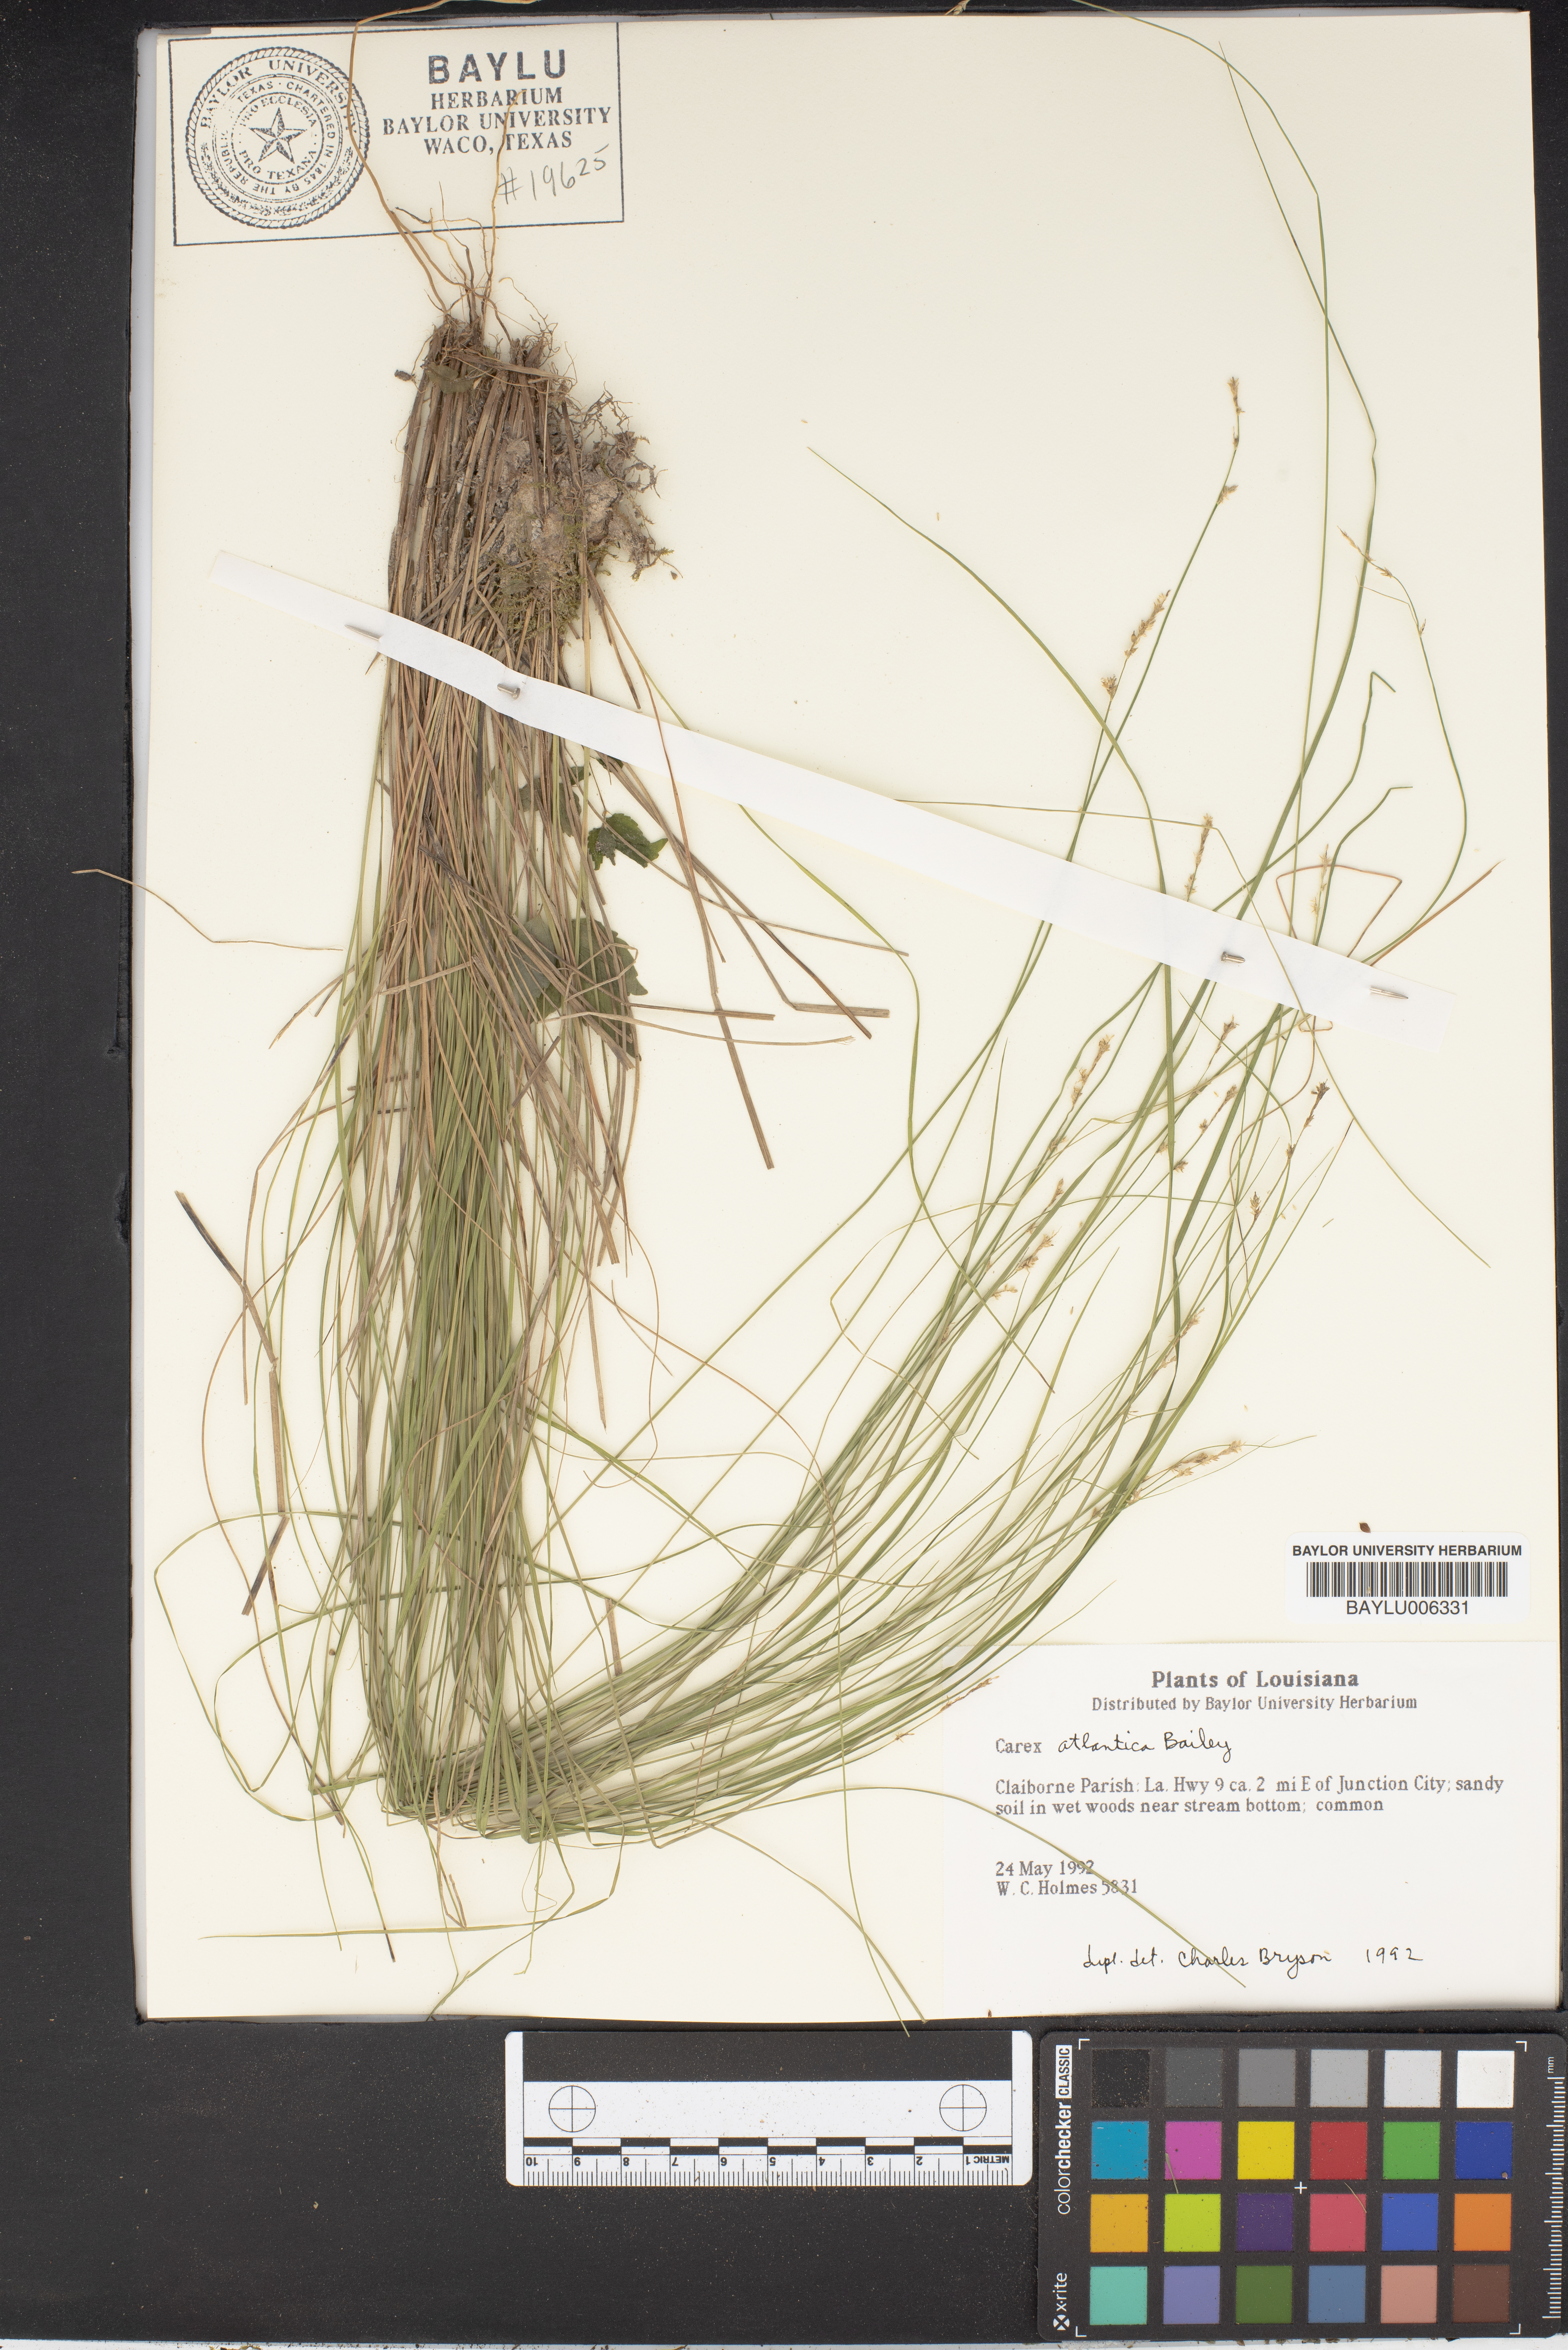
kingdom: Plantae
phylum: Tracheophyta
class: Liliopsida
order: Poales
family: Cyperaceae
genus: Carex
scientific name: Carex atlantica
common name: Atlantic sedge
